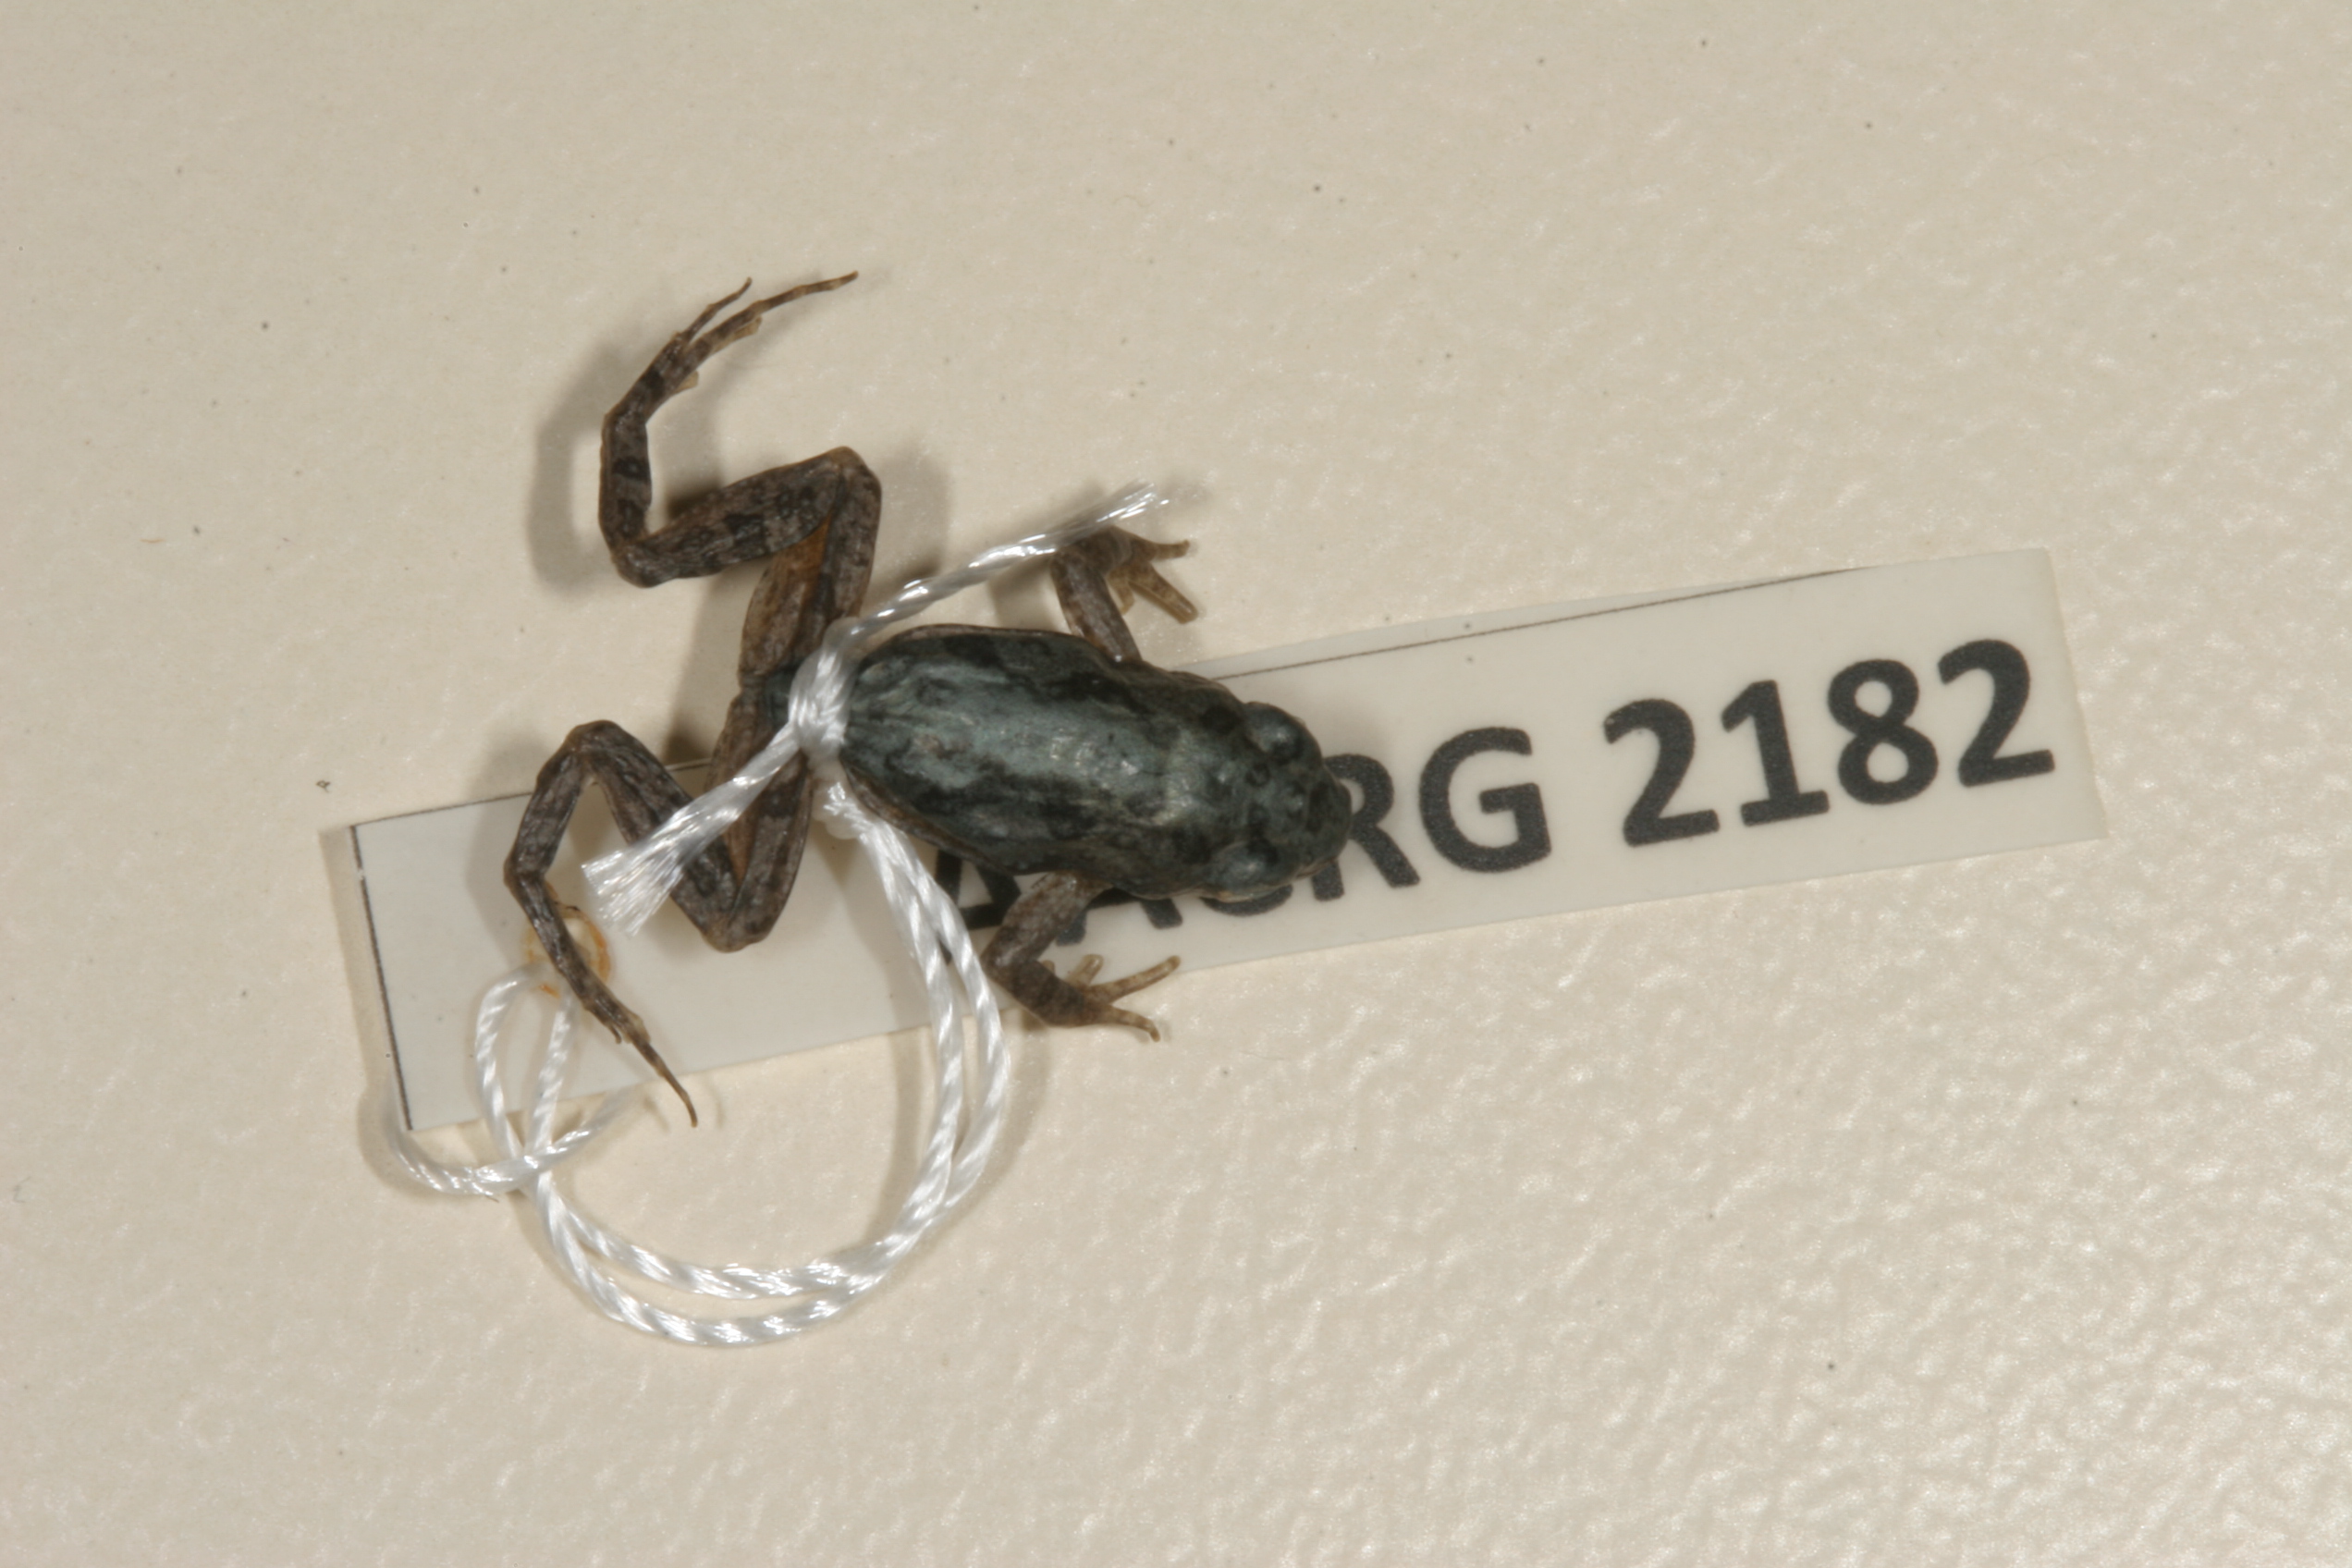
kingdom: Animalia
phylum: Chordata
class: Amphibia
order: Anura
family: Pyxicephalidae
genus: Cacosternum
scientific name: Cacosternum boettgeri
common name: Boettger's frog
